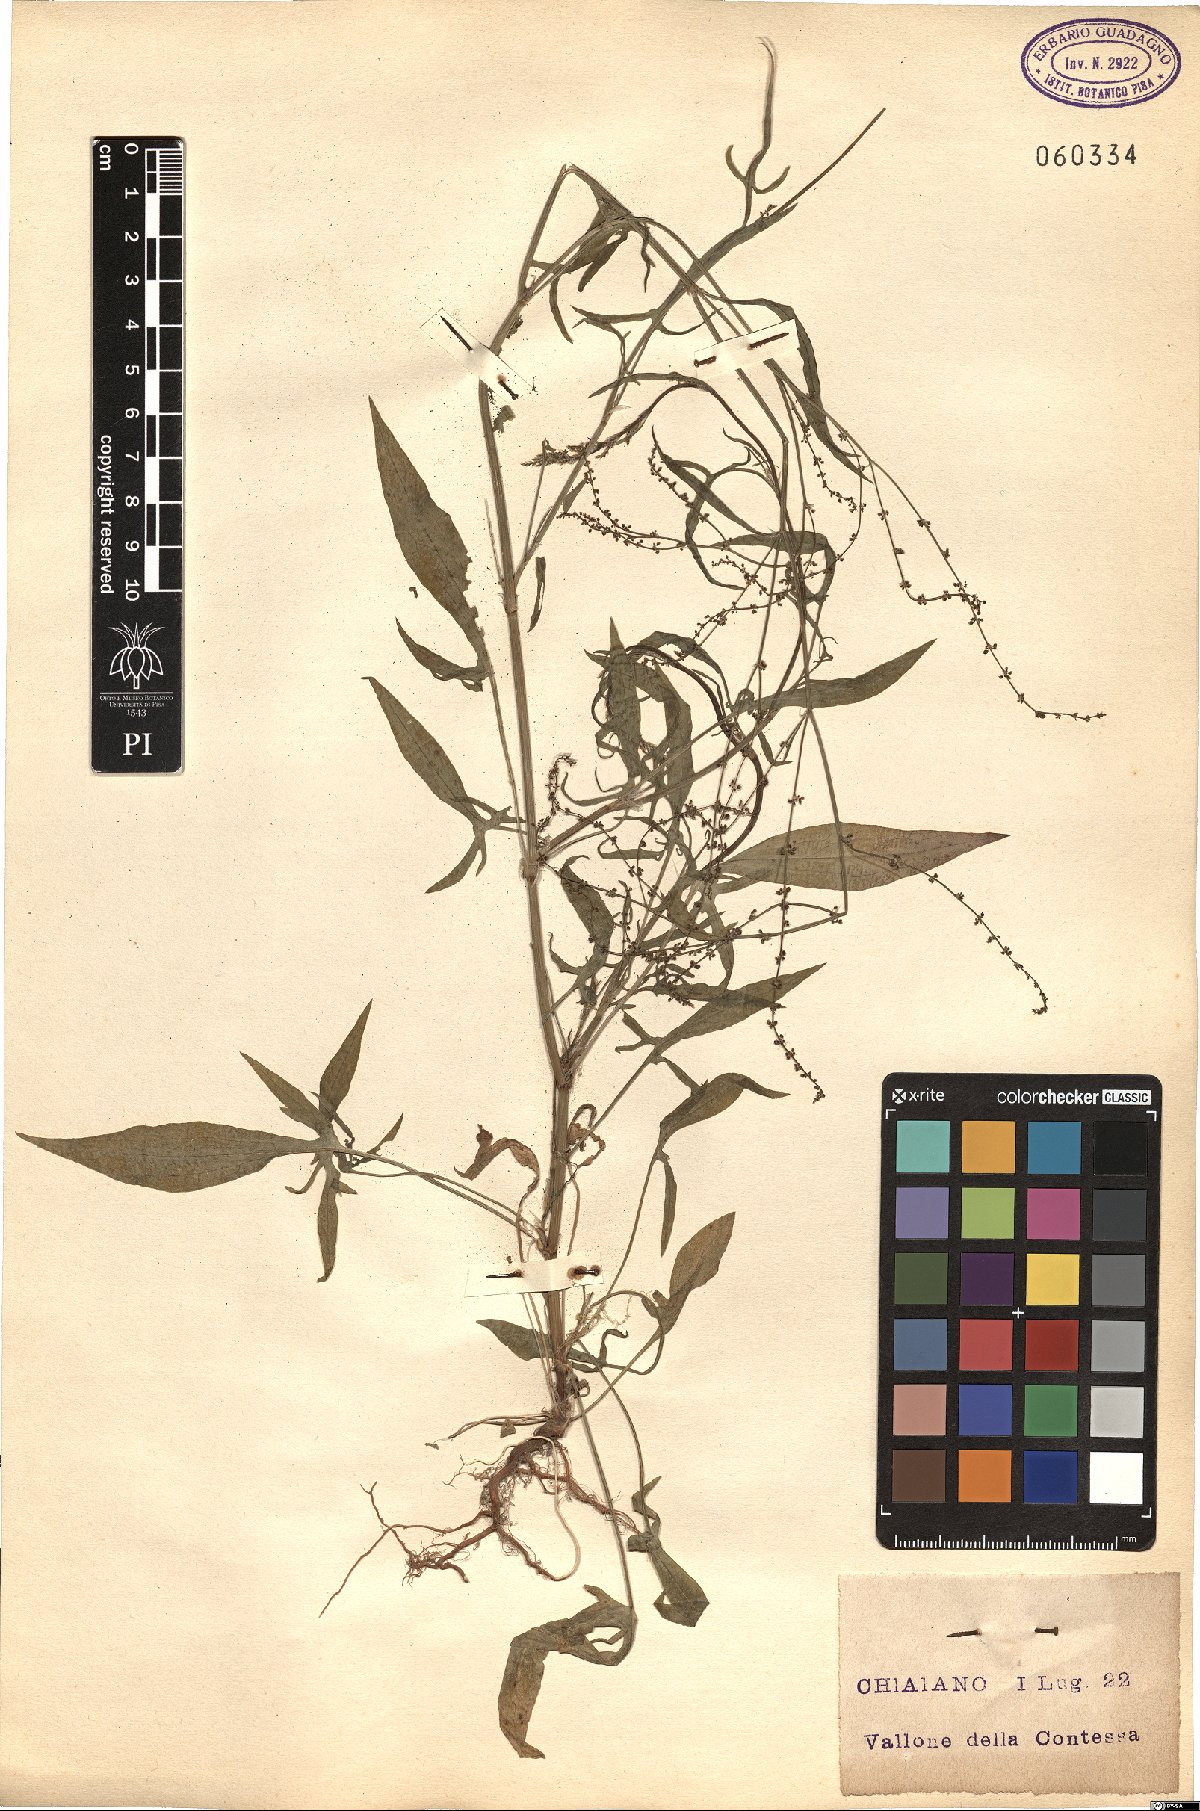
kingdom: Plantae
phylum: Tracheophyta
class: Magnoliopsida
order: Caryophyllales
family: Polygonaceae
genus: Rumex
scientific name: Rumex
